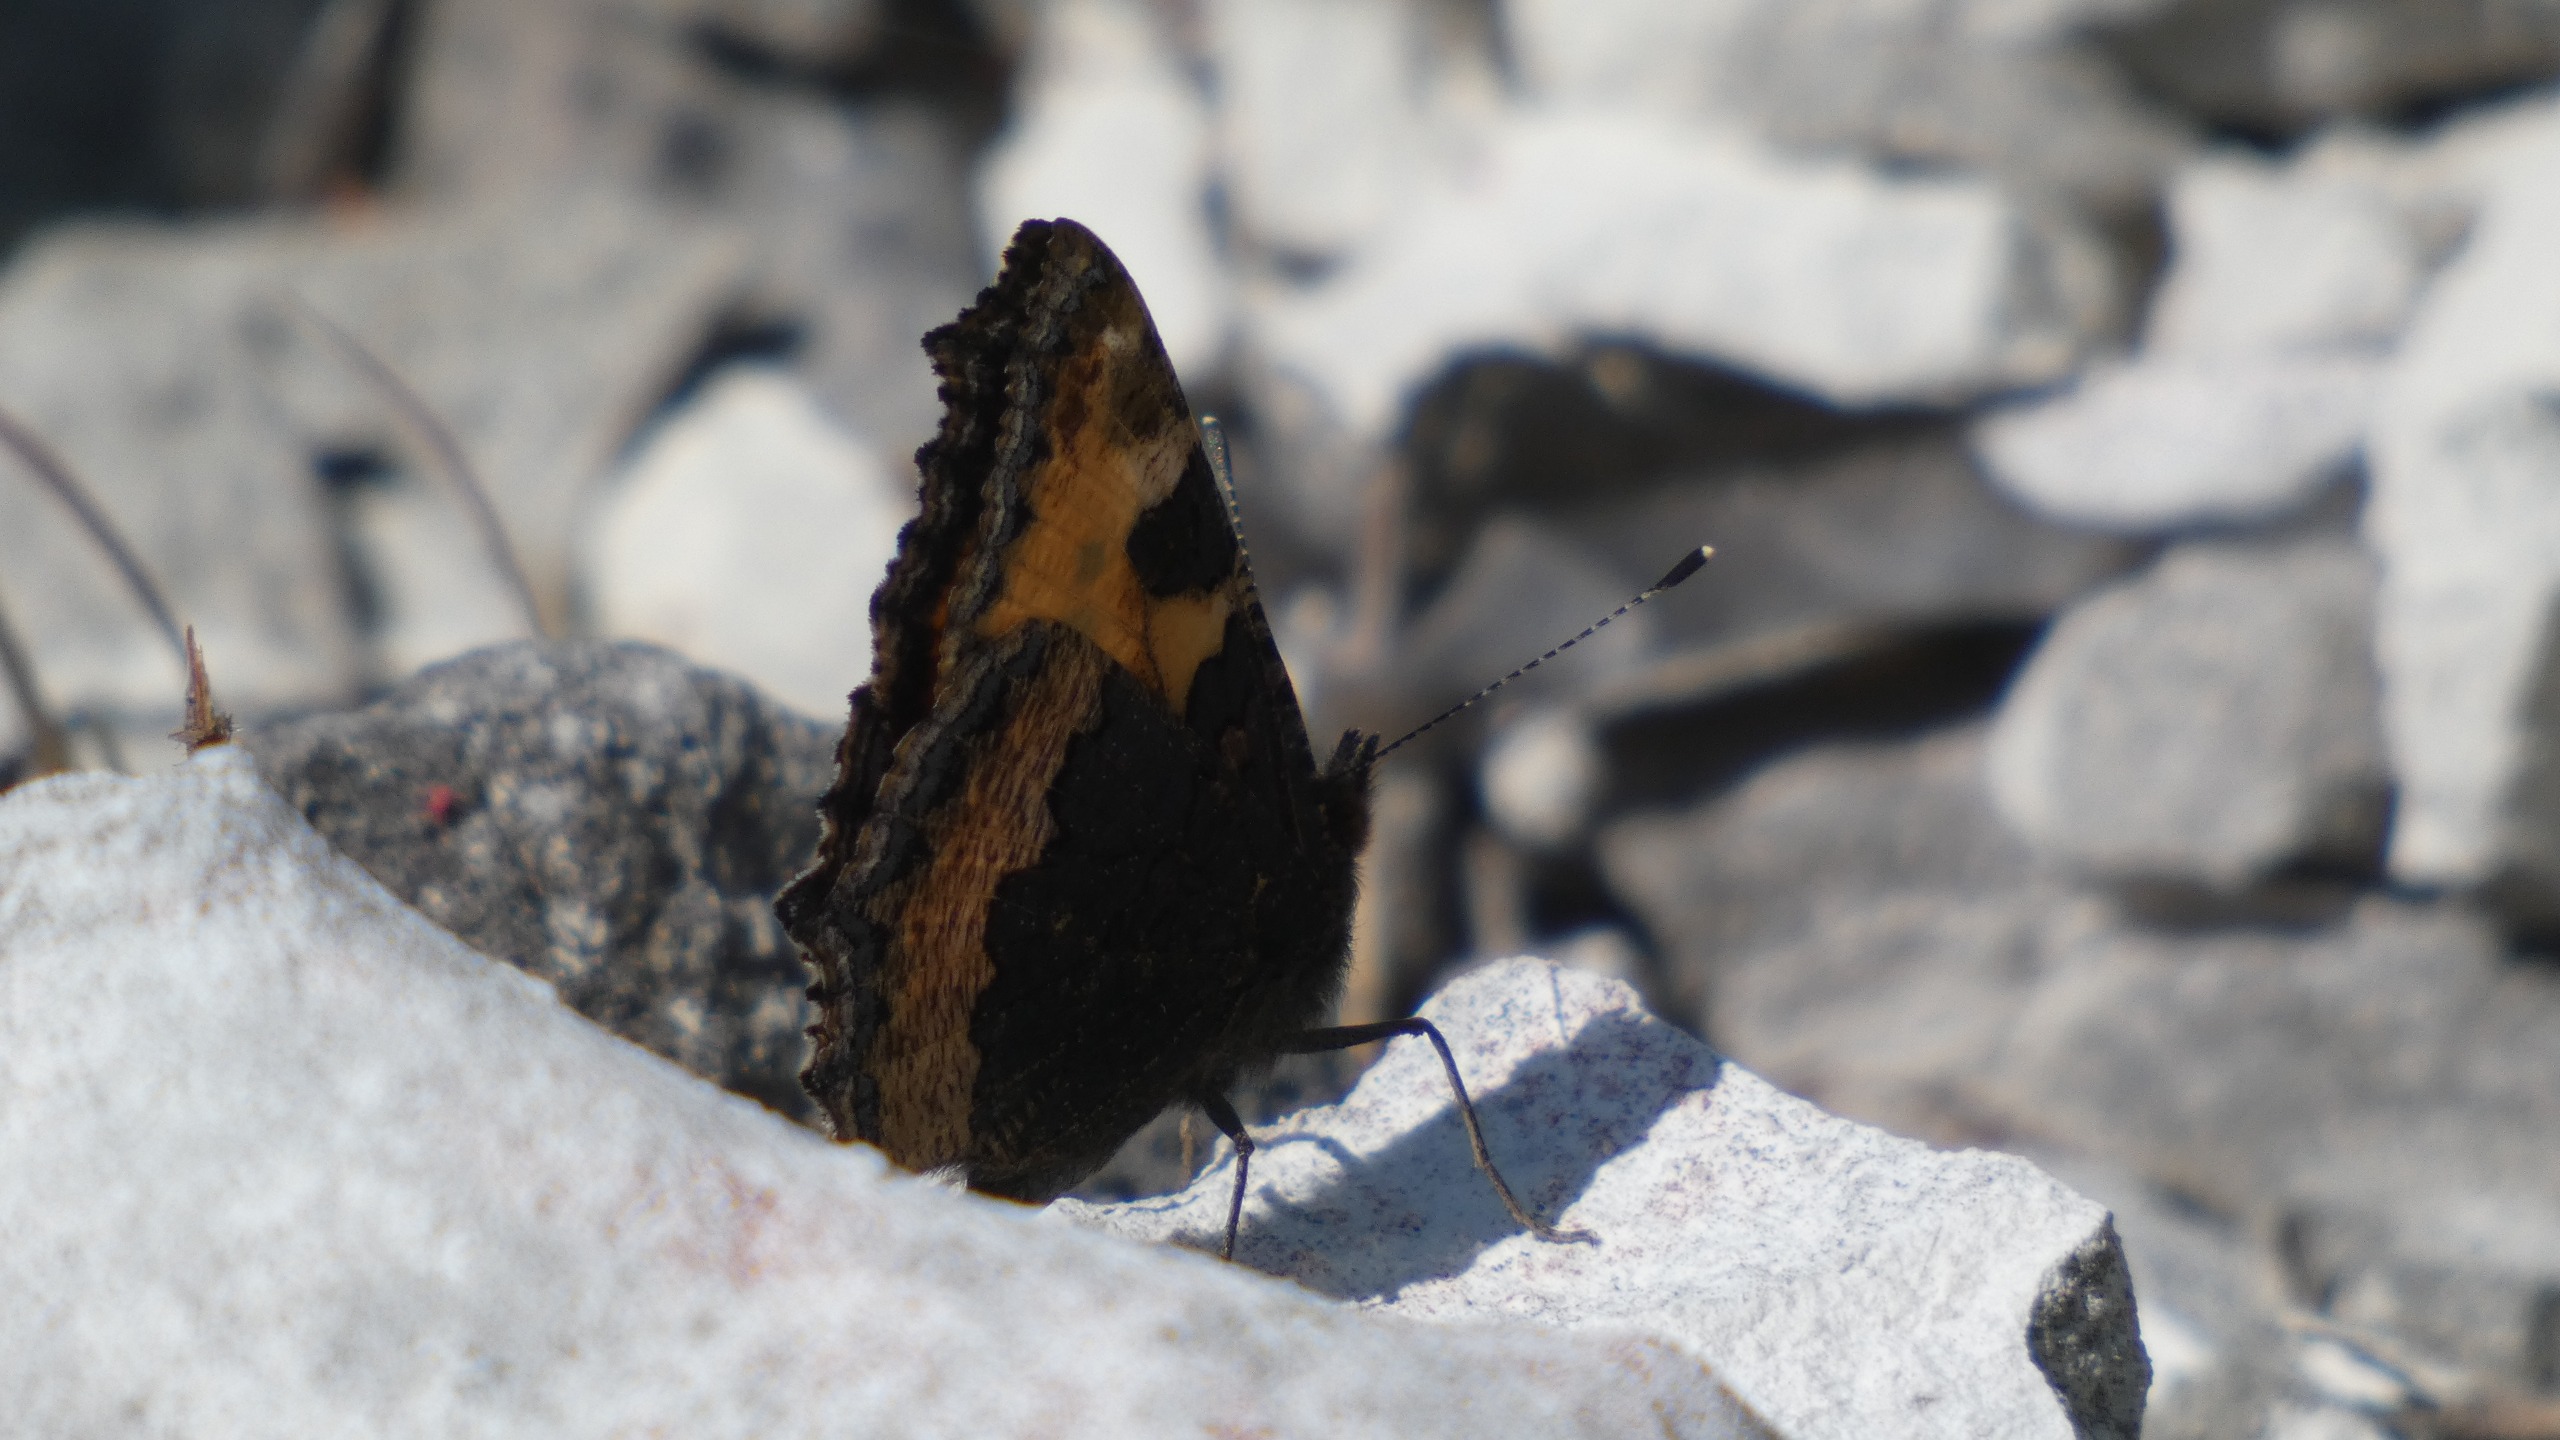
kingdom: Animalia
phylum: Arthropoda
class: Insecta
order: Lepidoptera
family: Nymphalidae
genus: Aglais
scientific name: Aglais urticae
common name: Nældens takvinge
